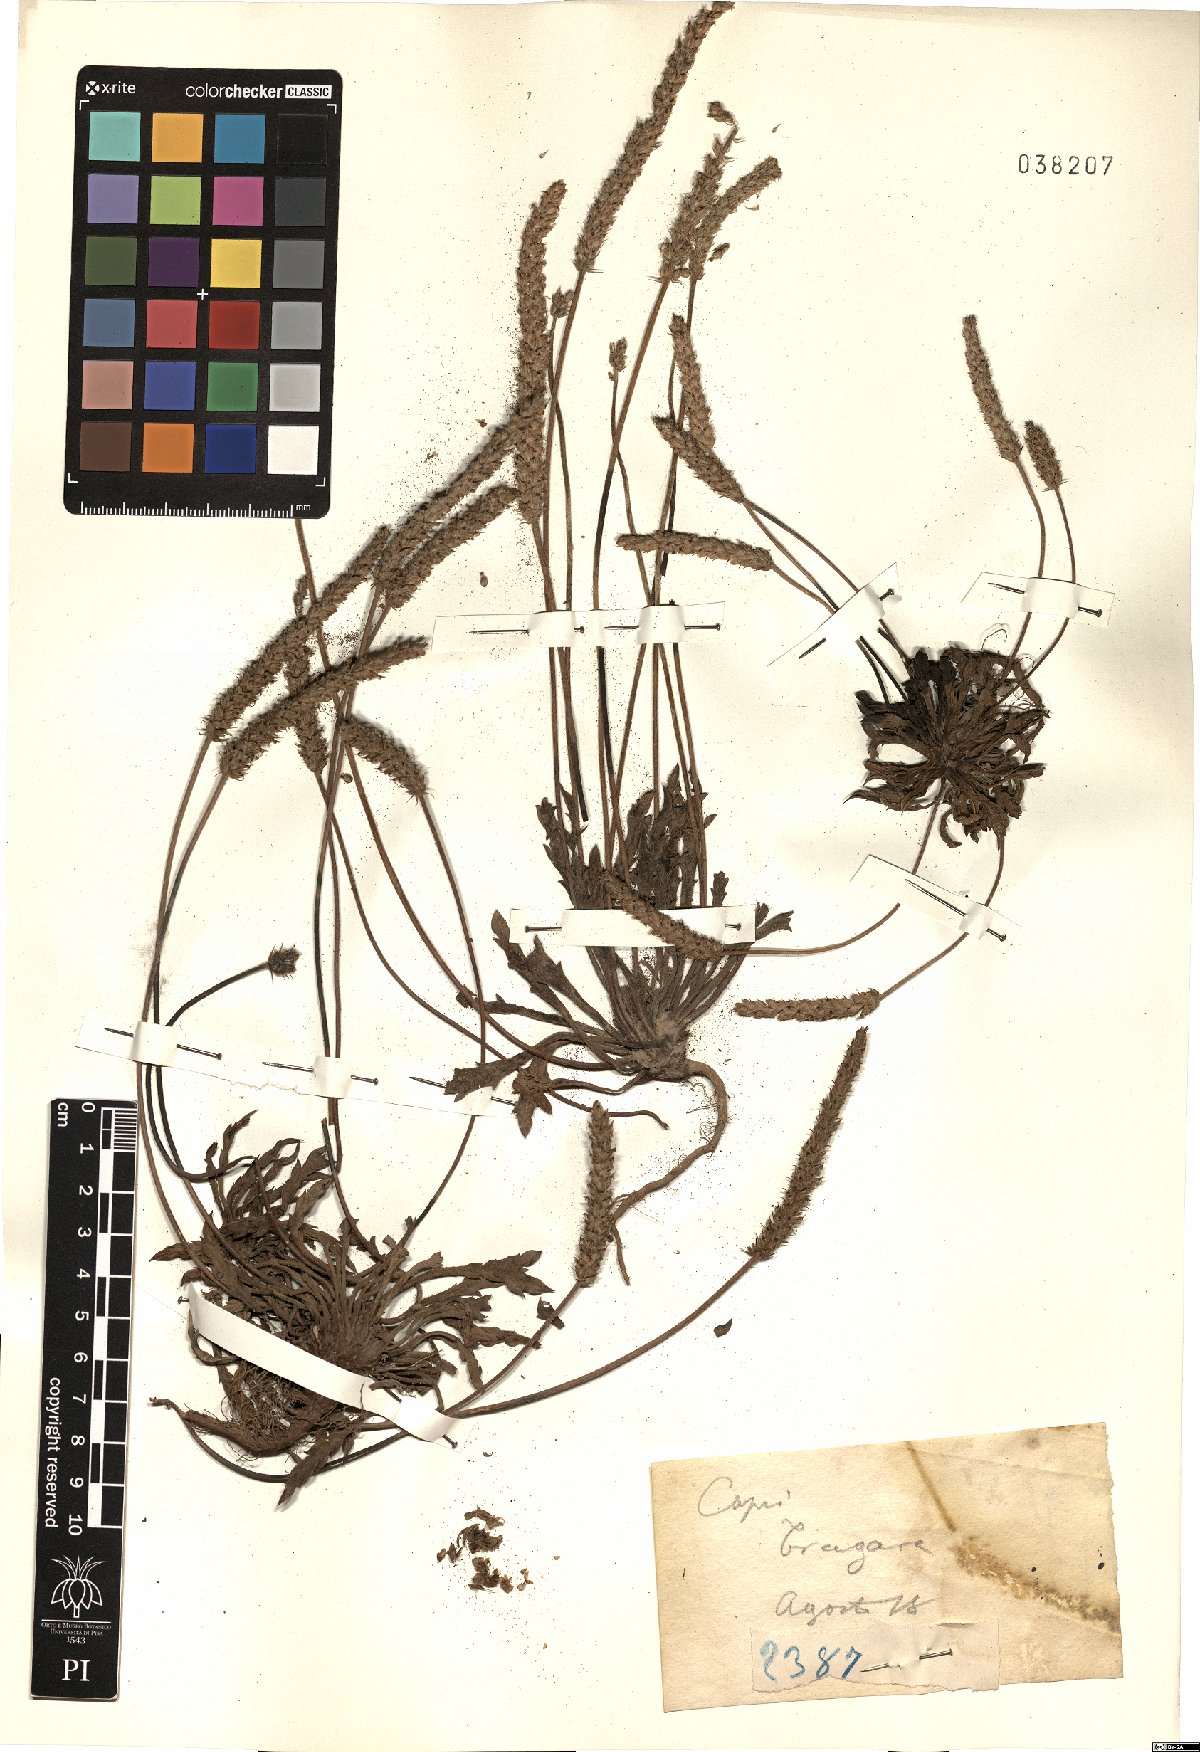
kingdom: Plantae
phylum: Tracheophyta
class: Magnoliopsida
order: Lamiales
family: Plantaginaceae
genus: Plantago
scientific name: Plantago
